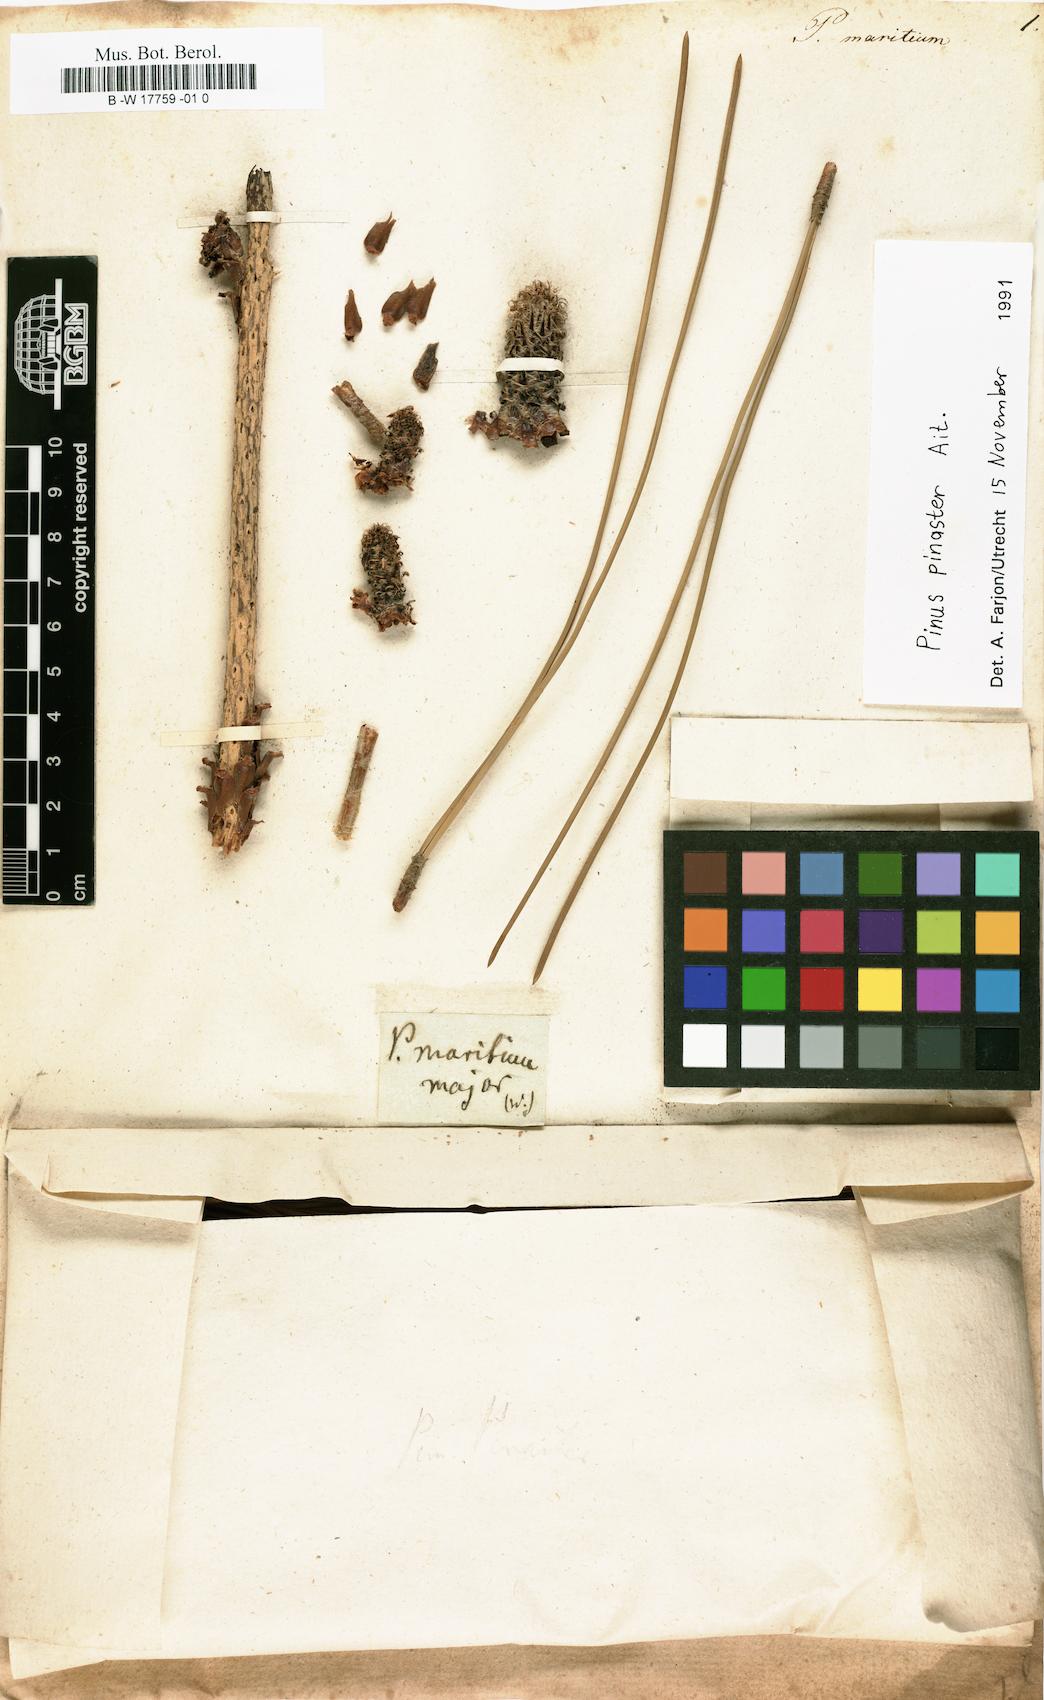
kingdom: Plantae
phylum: Tracheophyta
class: Pinopsida
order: Pinales
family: Pinaceae
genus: Pinus
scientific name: Pinus halepensis
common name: Aleppo pine
